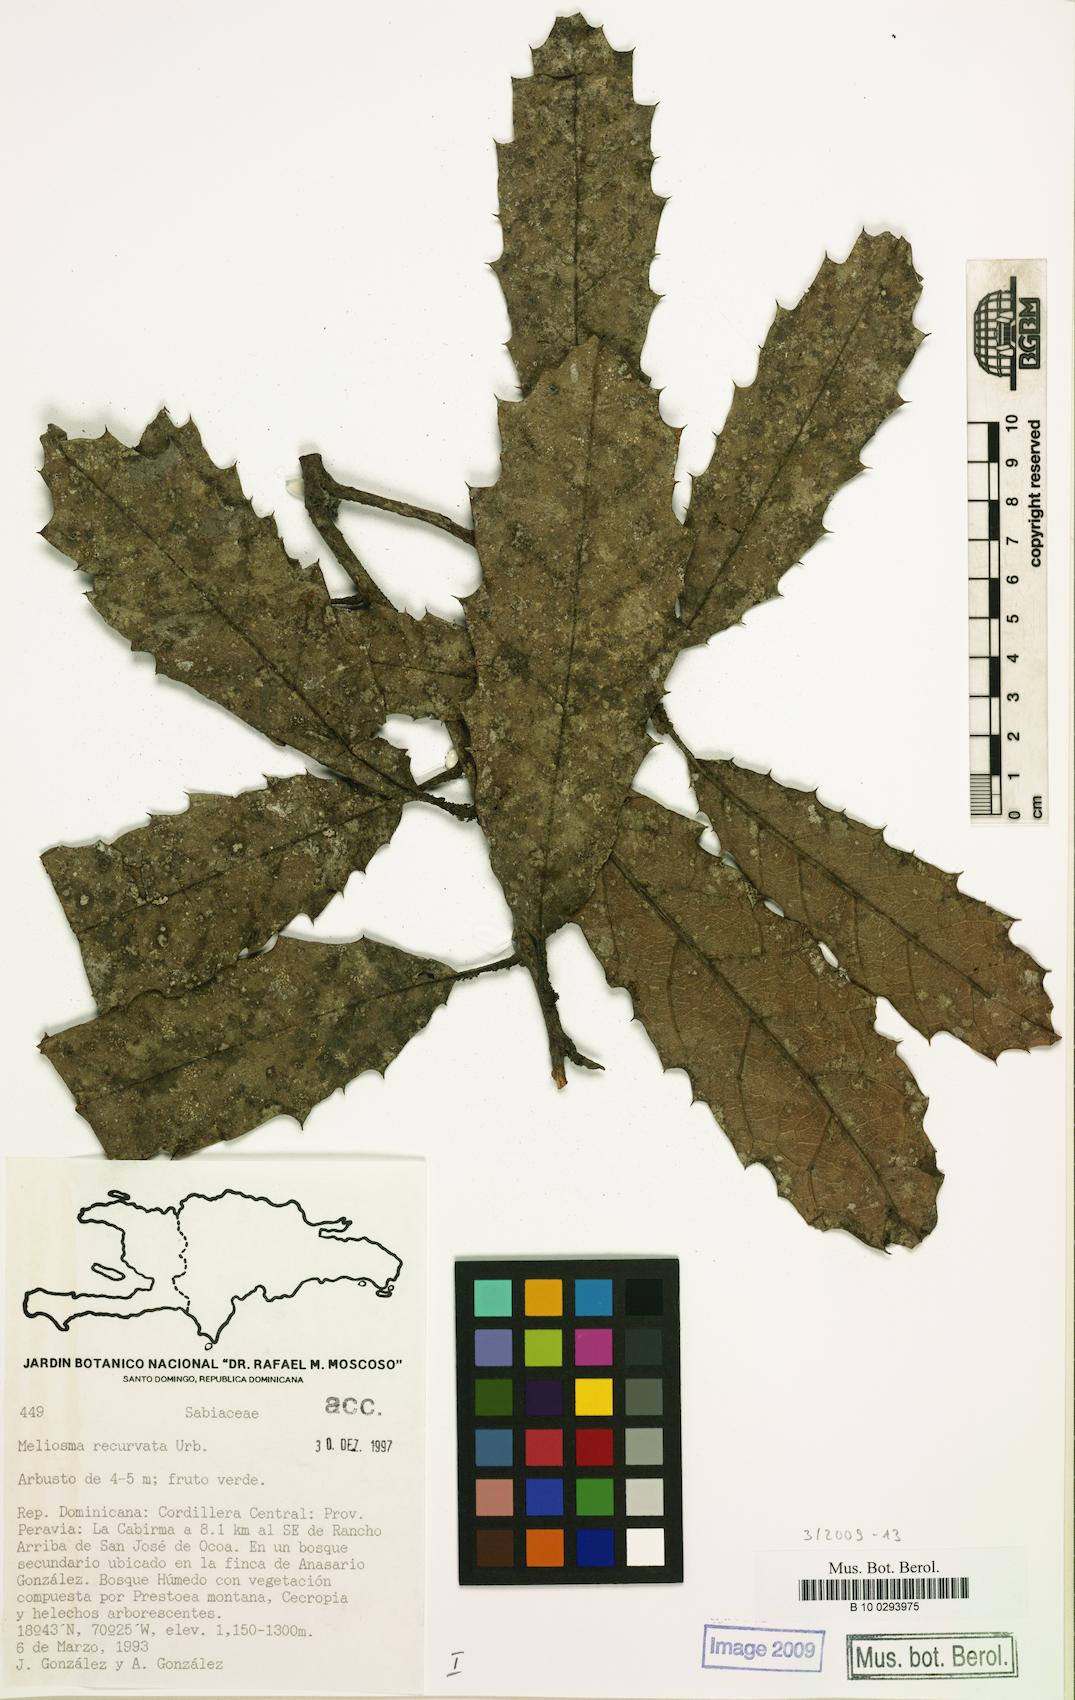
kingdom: Plantae
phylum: Tracheophyta
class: Magnoliopsida
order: Proteales
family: Sabiaceae
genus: Meliosma
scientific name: Meliosma recurvata
